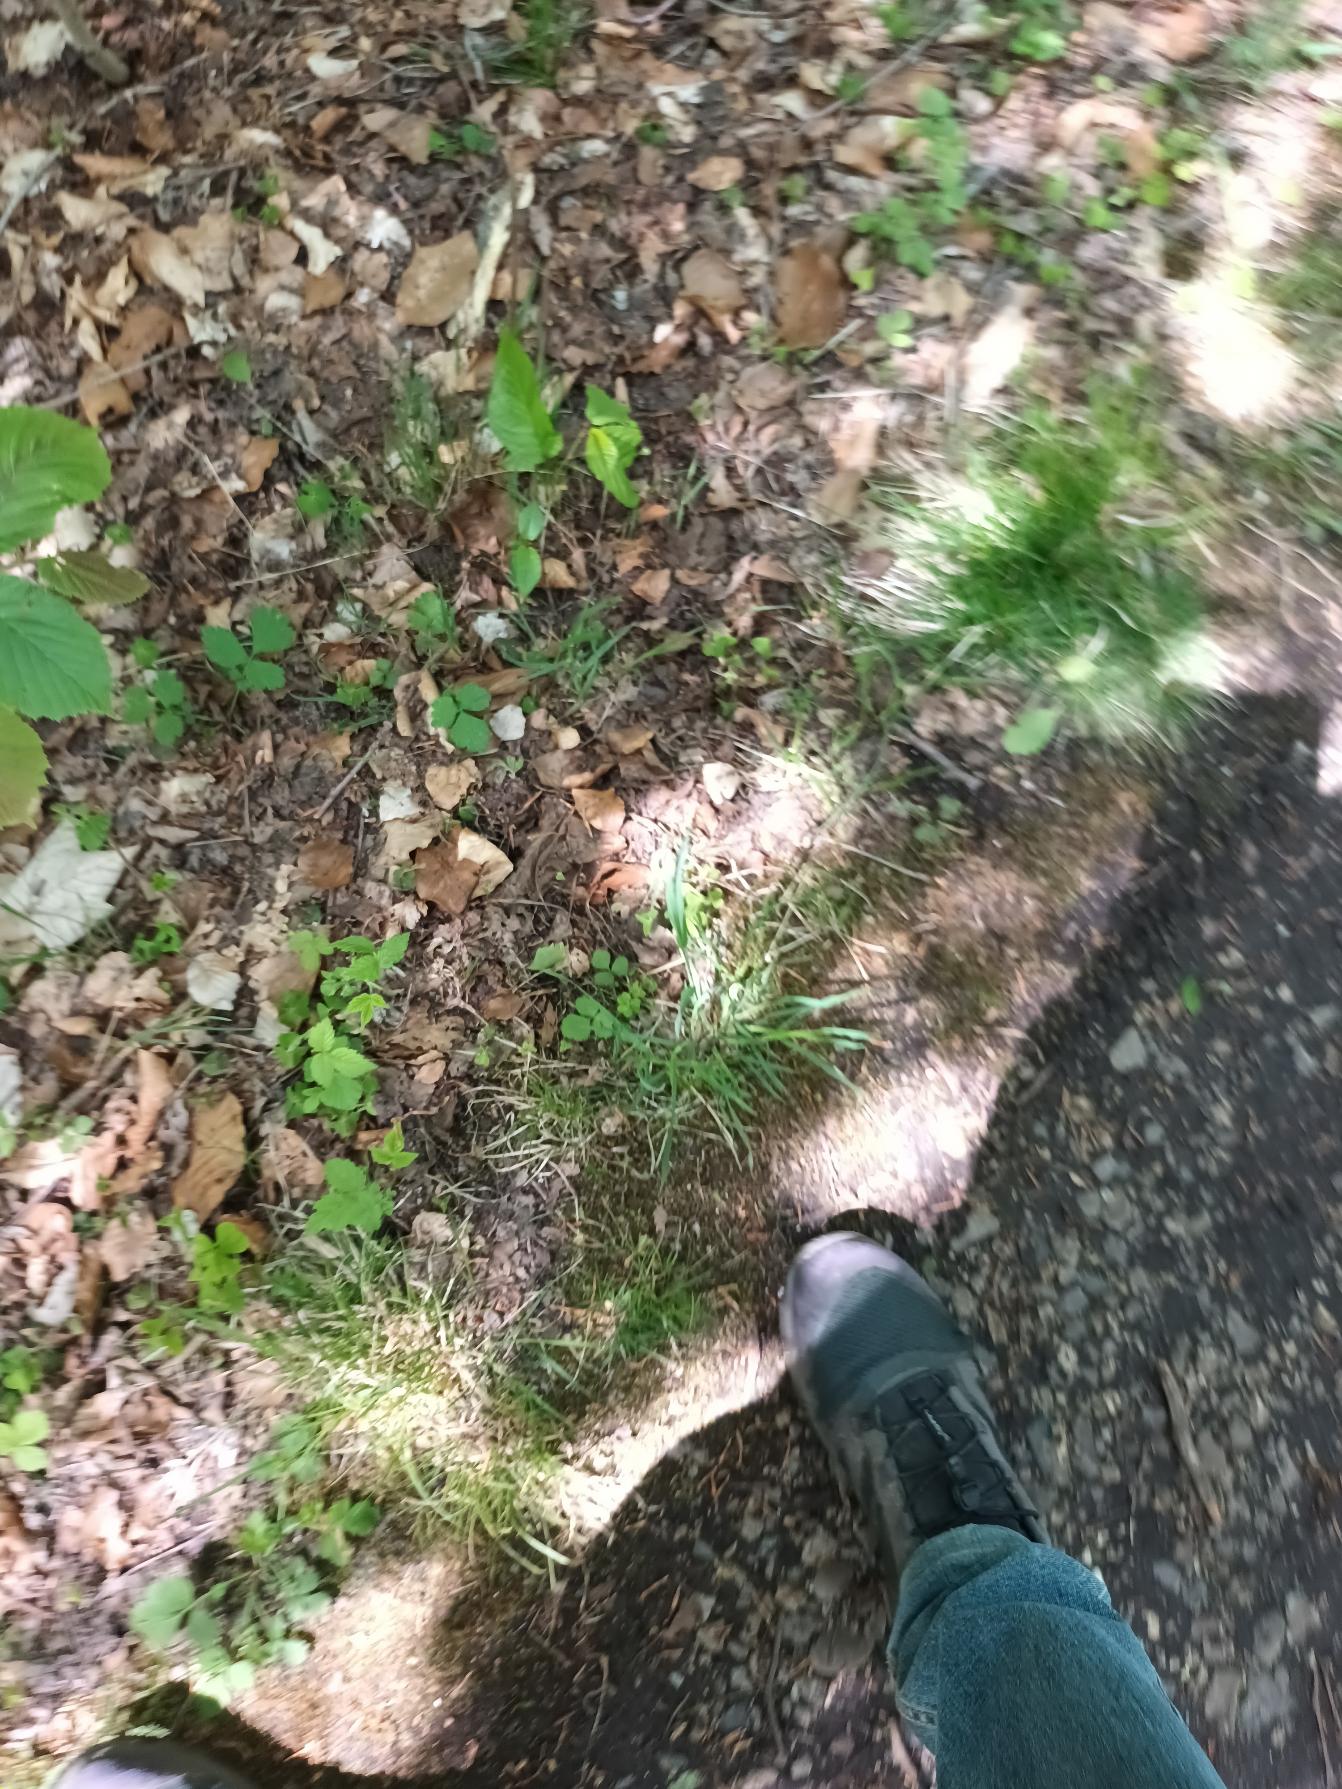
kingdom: Plantae
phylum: Tracheophyta
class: Magnoliopsida
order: Fagales
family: Betulaceae
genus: Corylus
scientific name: Corylus avellana
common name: Hassel
